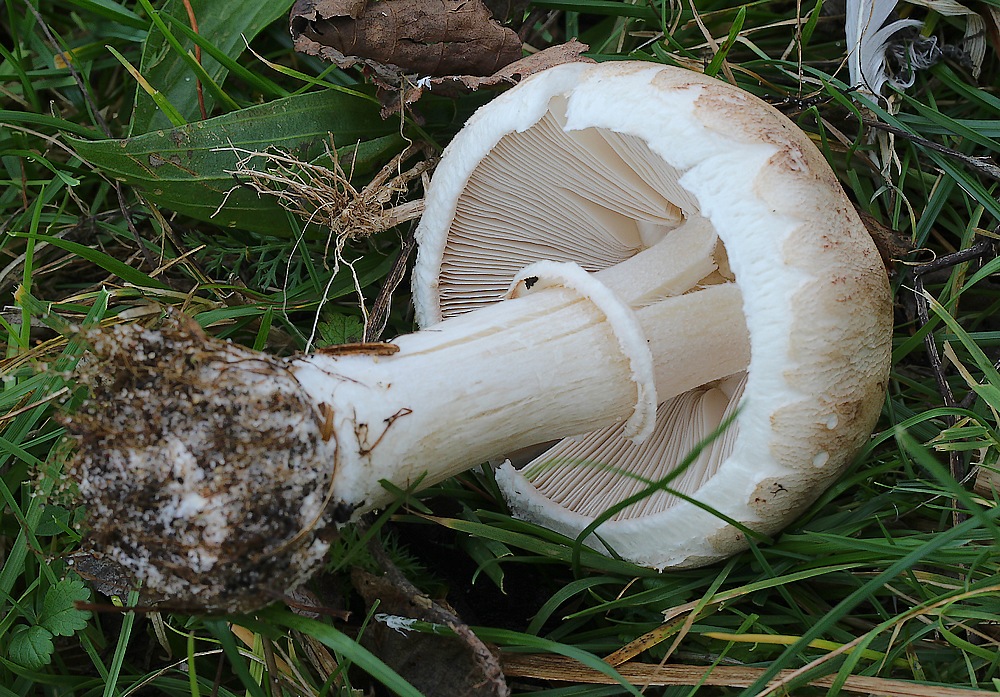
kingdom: Fungi
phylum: Basidiomycota
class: Agaricomycetes
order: Agaricales
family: Agaricaceae
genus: Macrolepiota
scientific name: Macrolepiota excoriata
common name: mark-kæmpeparasolhat
